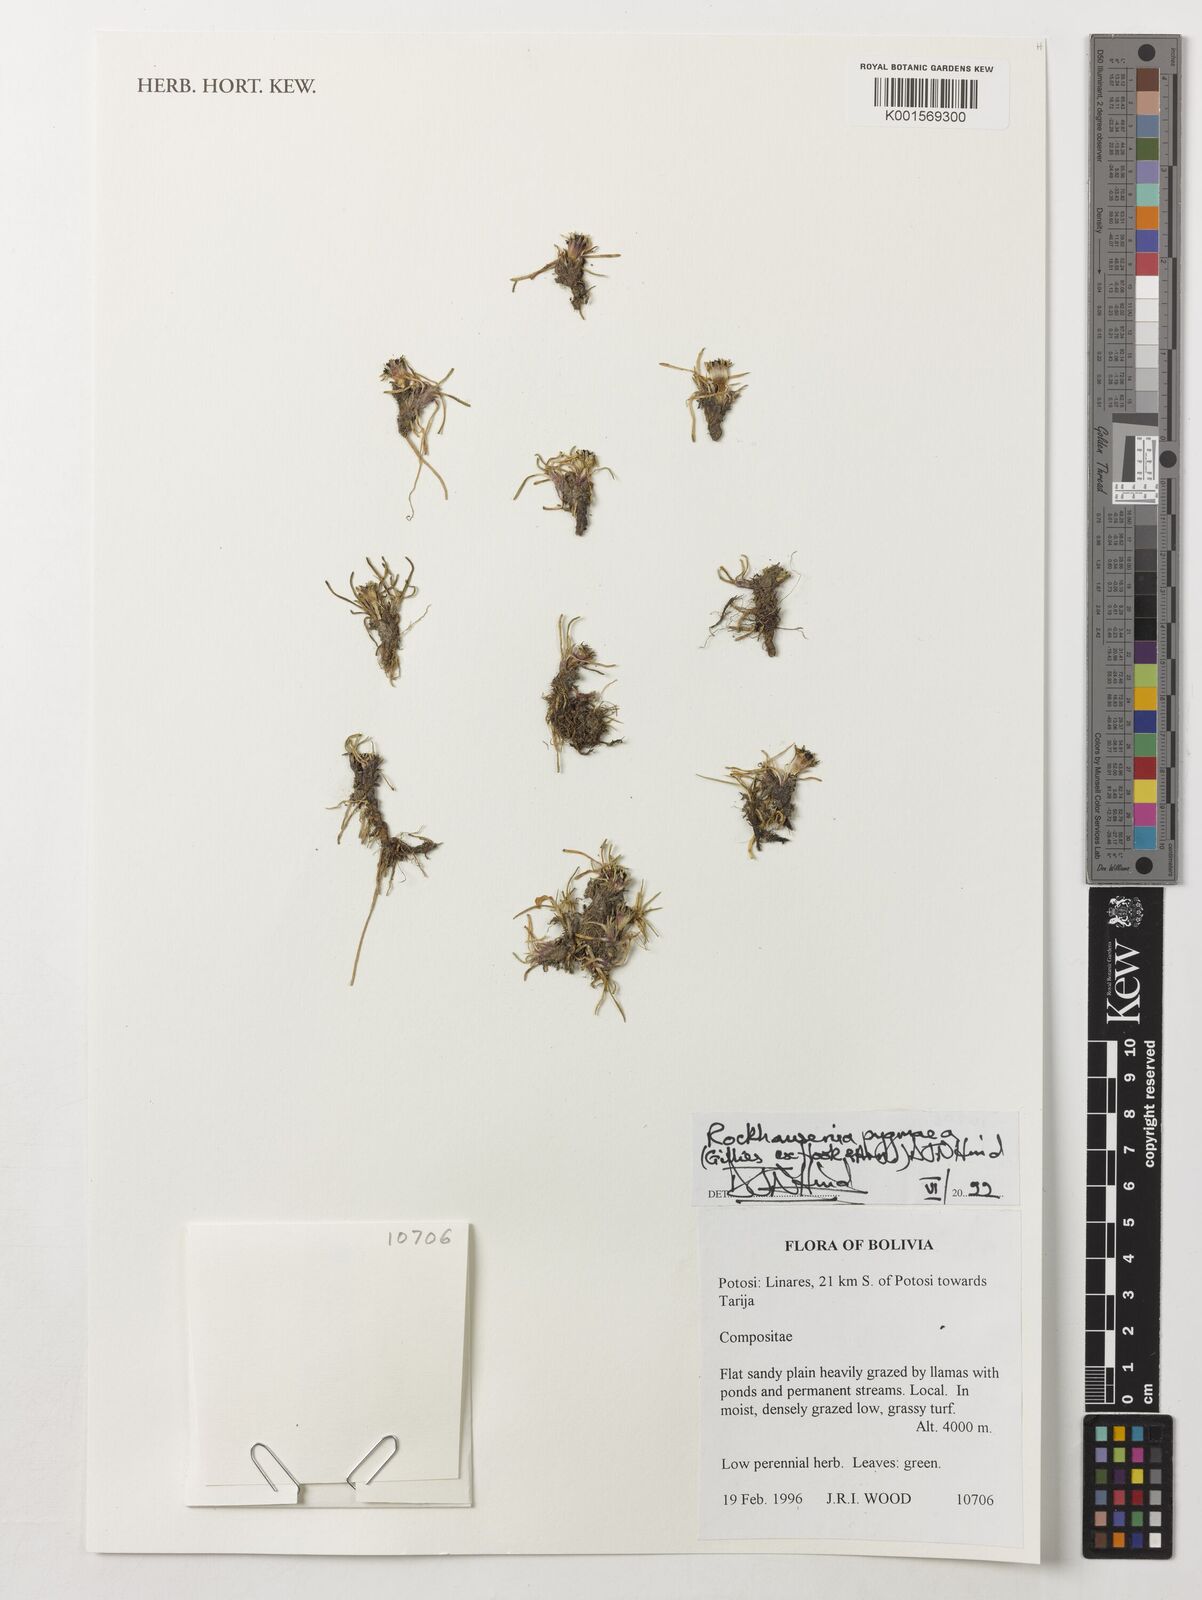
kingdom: Plantae
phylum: Tracheophyta
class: Magnoliopsida
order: Asterales
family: Asteraceae
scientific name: Asteraceae
